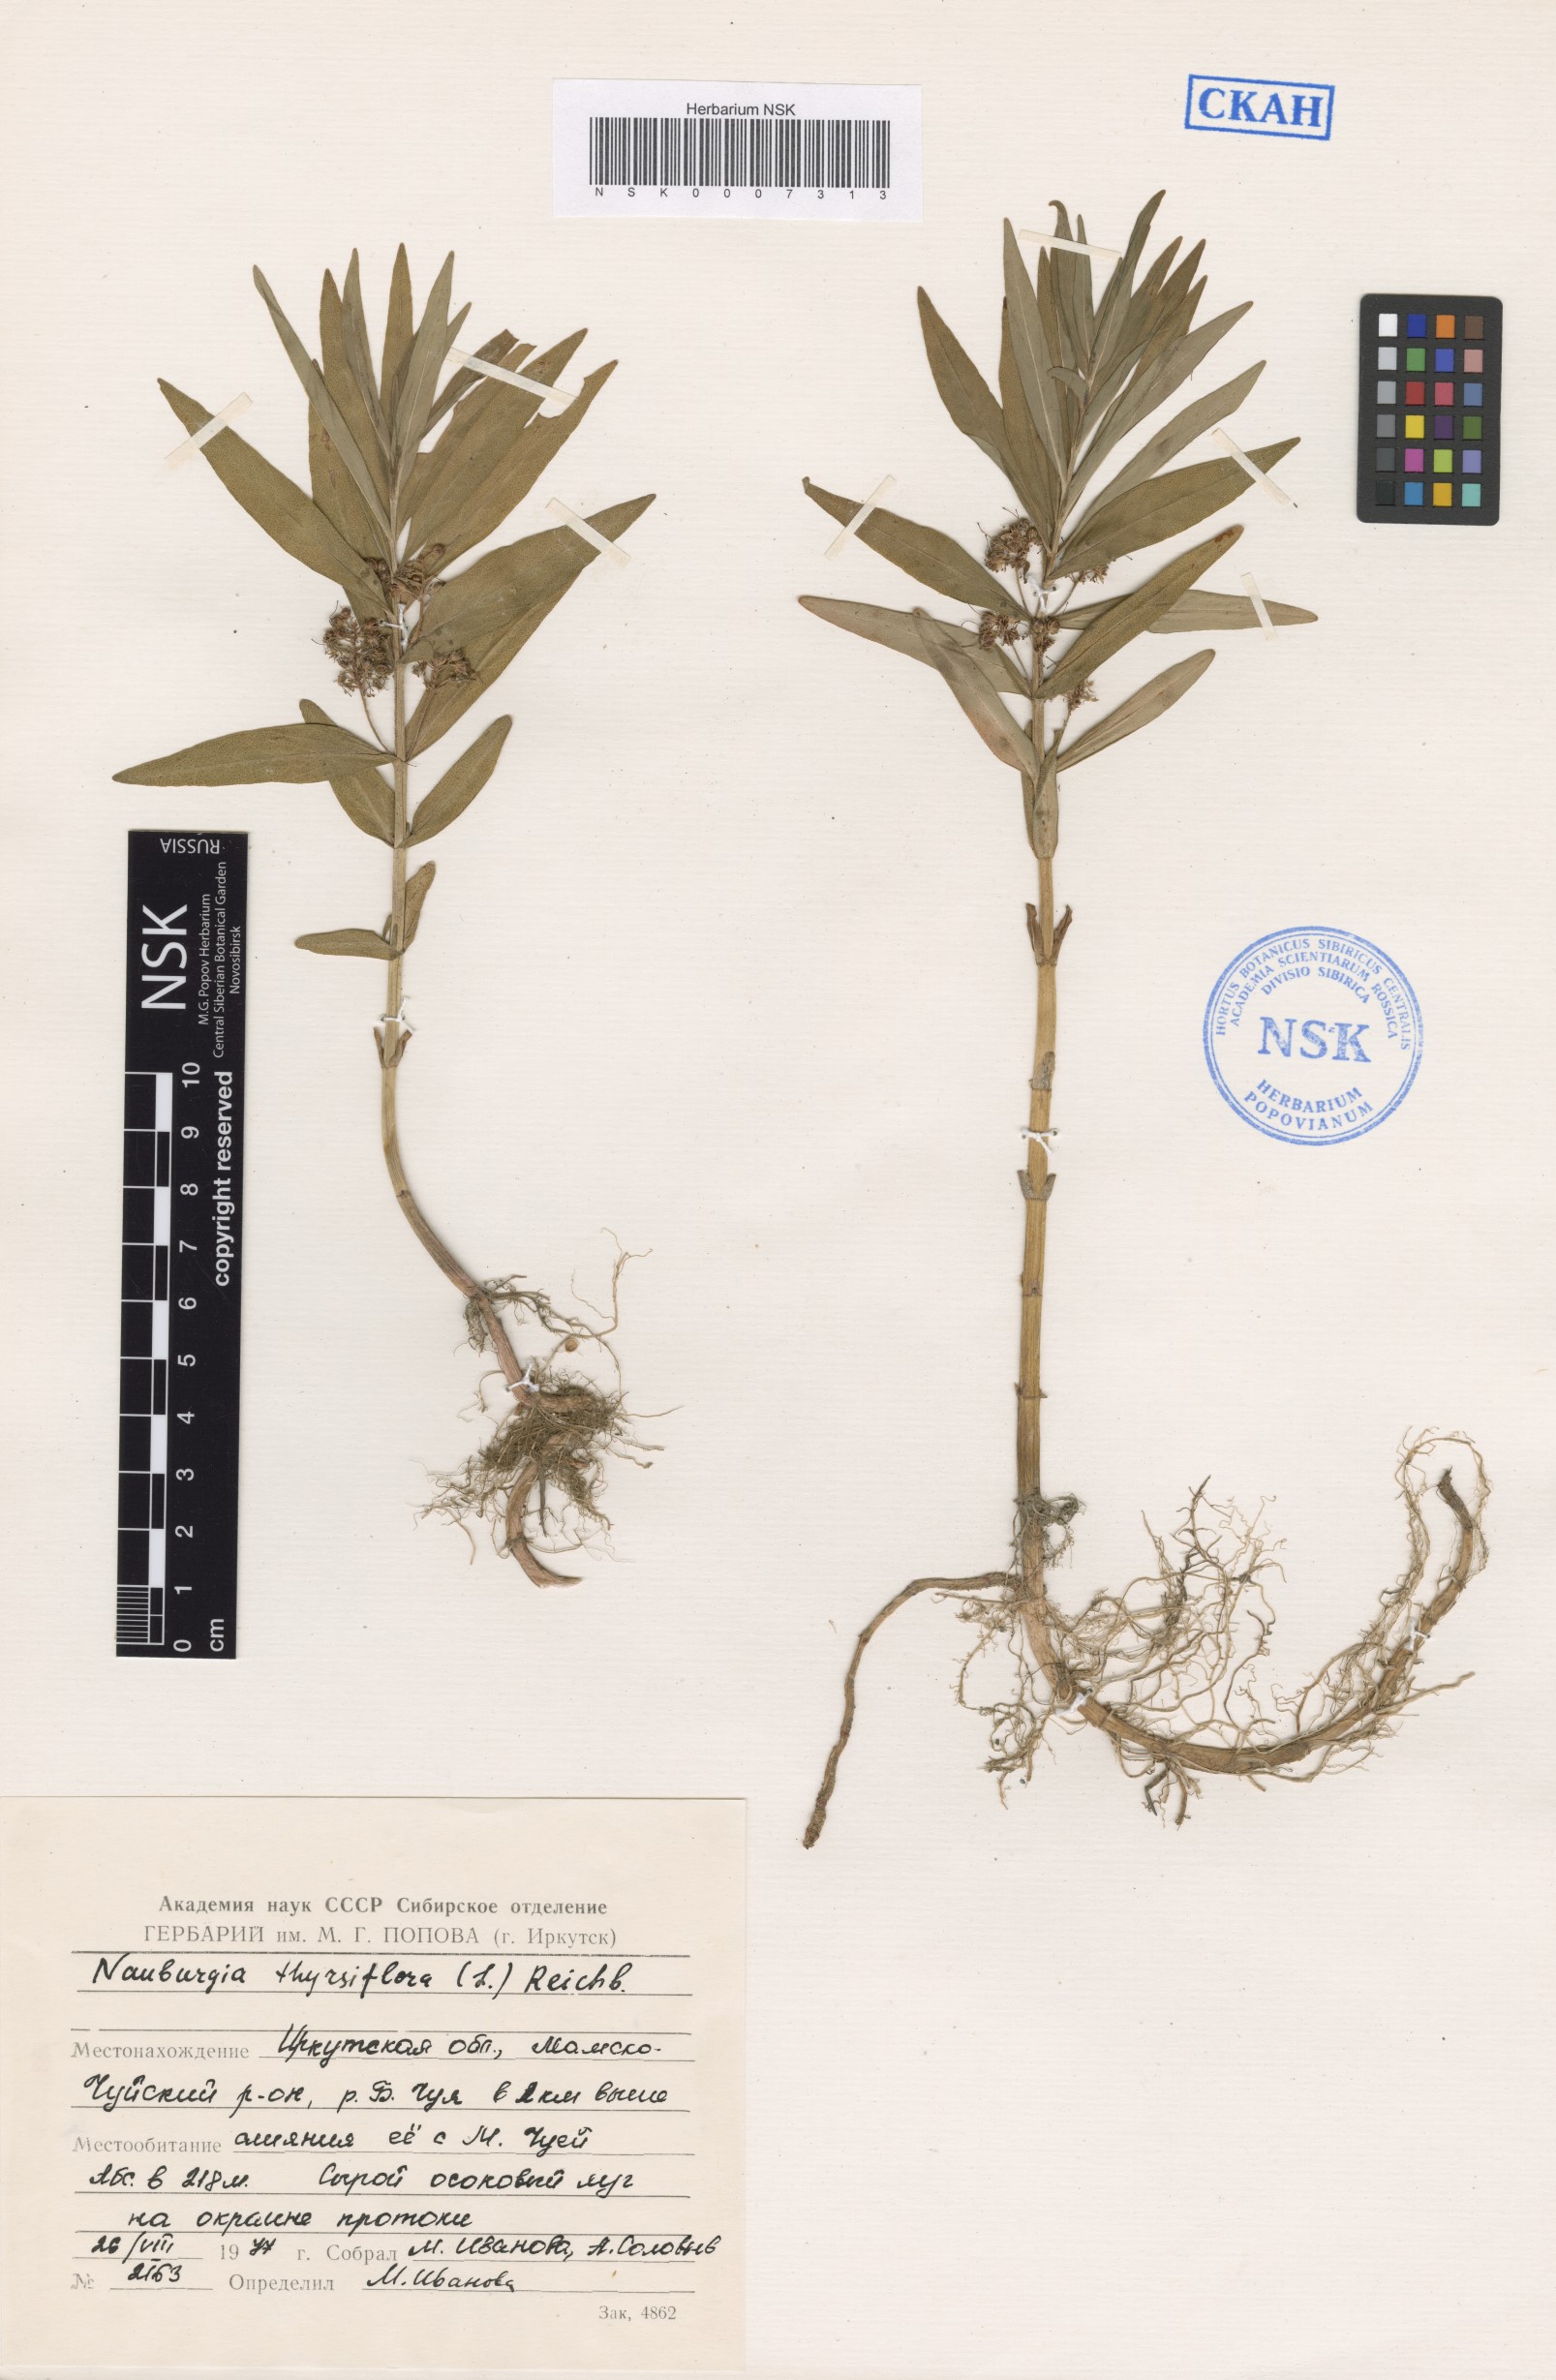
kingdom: Plantae
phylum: Tracheophyta
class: Magnoliopsida
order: Ericales
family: Primulaceae
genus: Lysimachia
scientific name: Lysimachia thyrsiflora
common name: Tufted loosestrife
